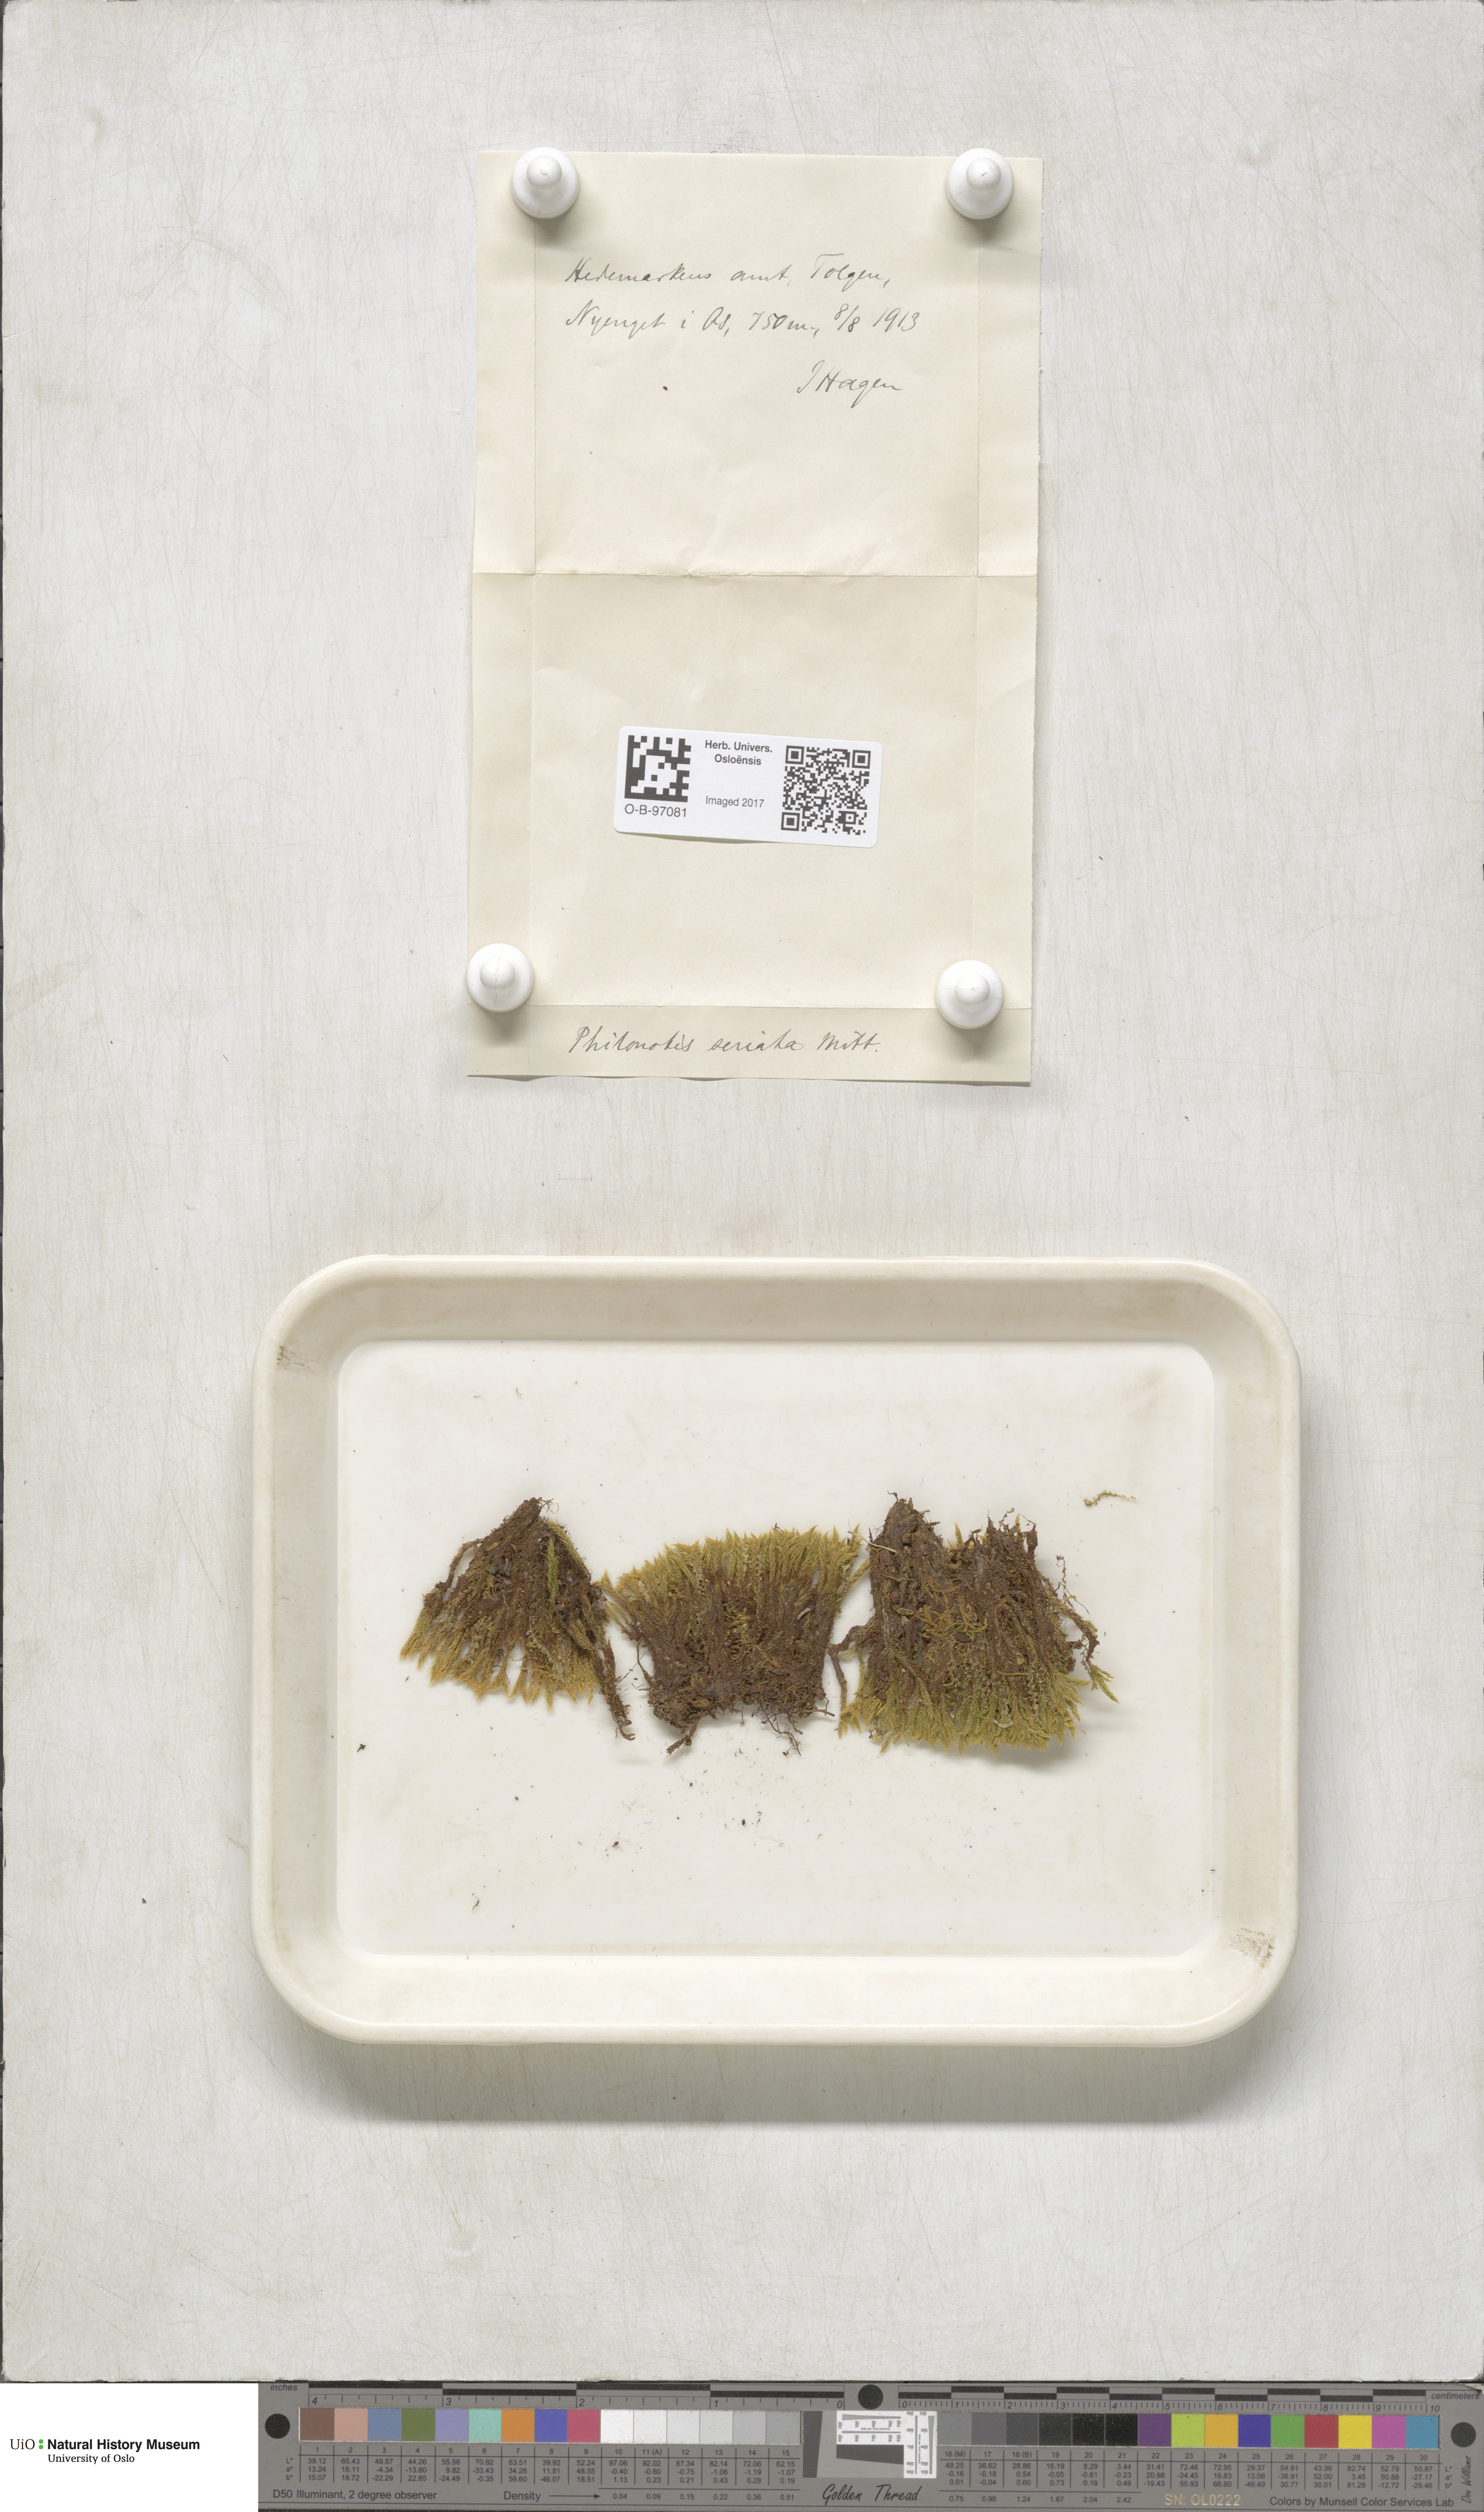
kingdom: Plantae
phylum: Bryophyta
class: Bryopsida
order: Bartramiales
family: Bartramiaceae
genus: Philonotis
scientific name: Philonotis seriata
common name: Spiral apple-moss
